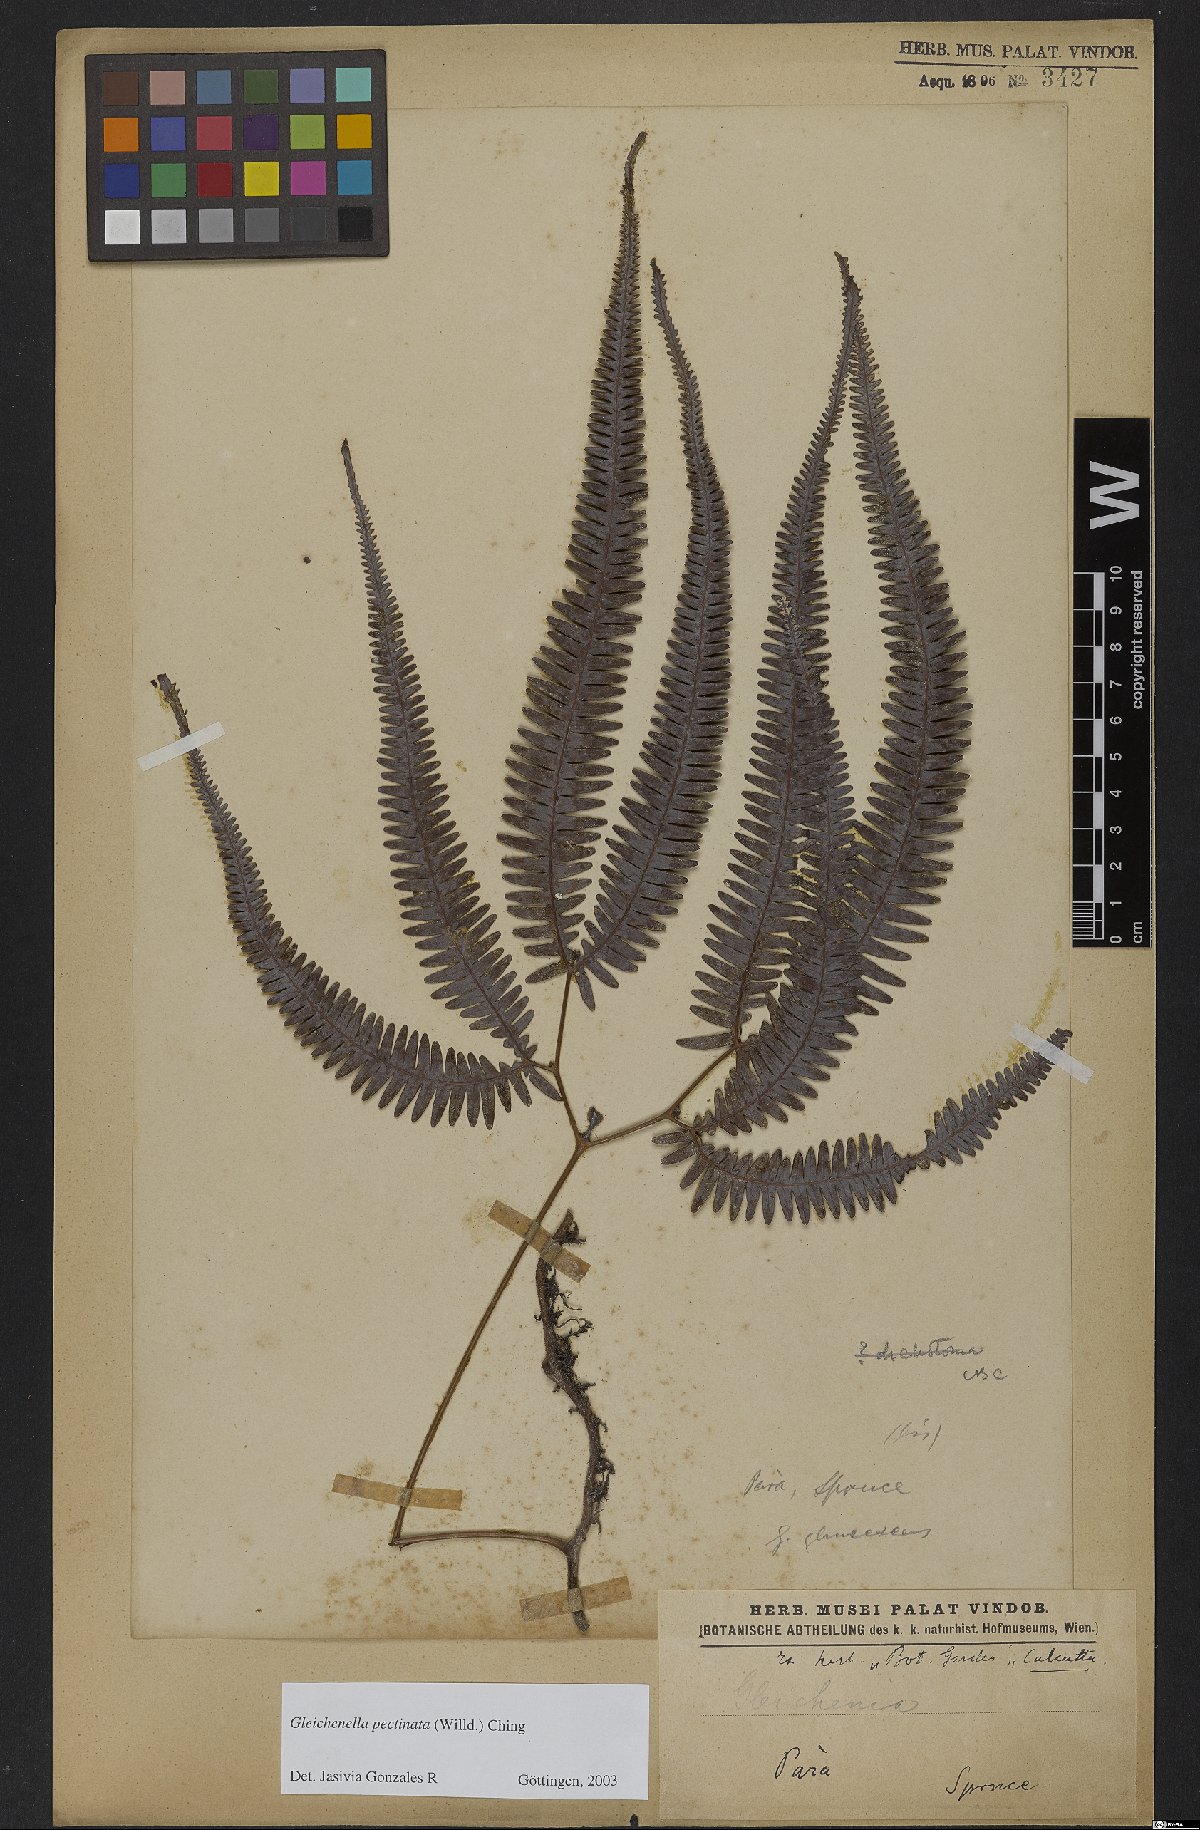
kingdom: Plantae
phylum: Tracheophyta
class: Polypodiopsida
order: Gleicheniales
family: Gleicheniaceae
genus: Gleichenella
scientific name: Gleichenella pectinata
